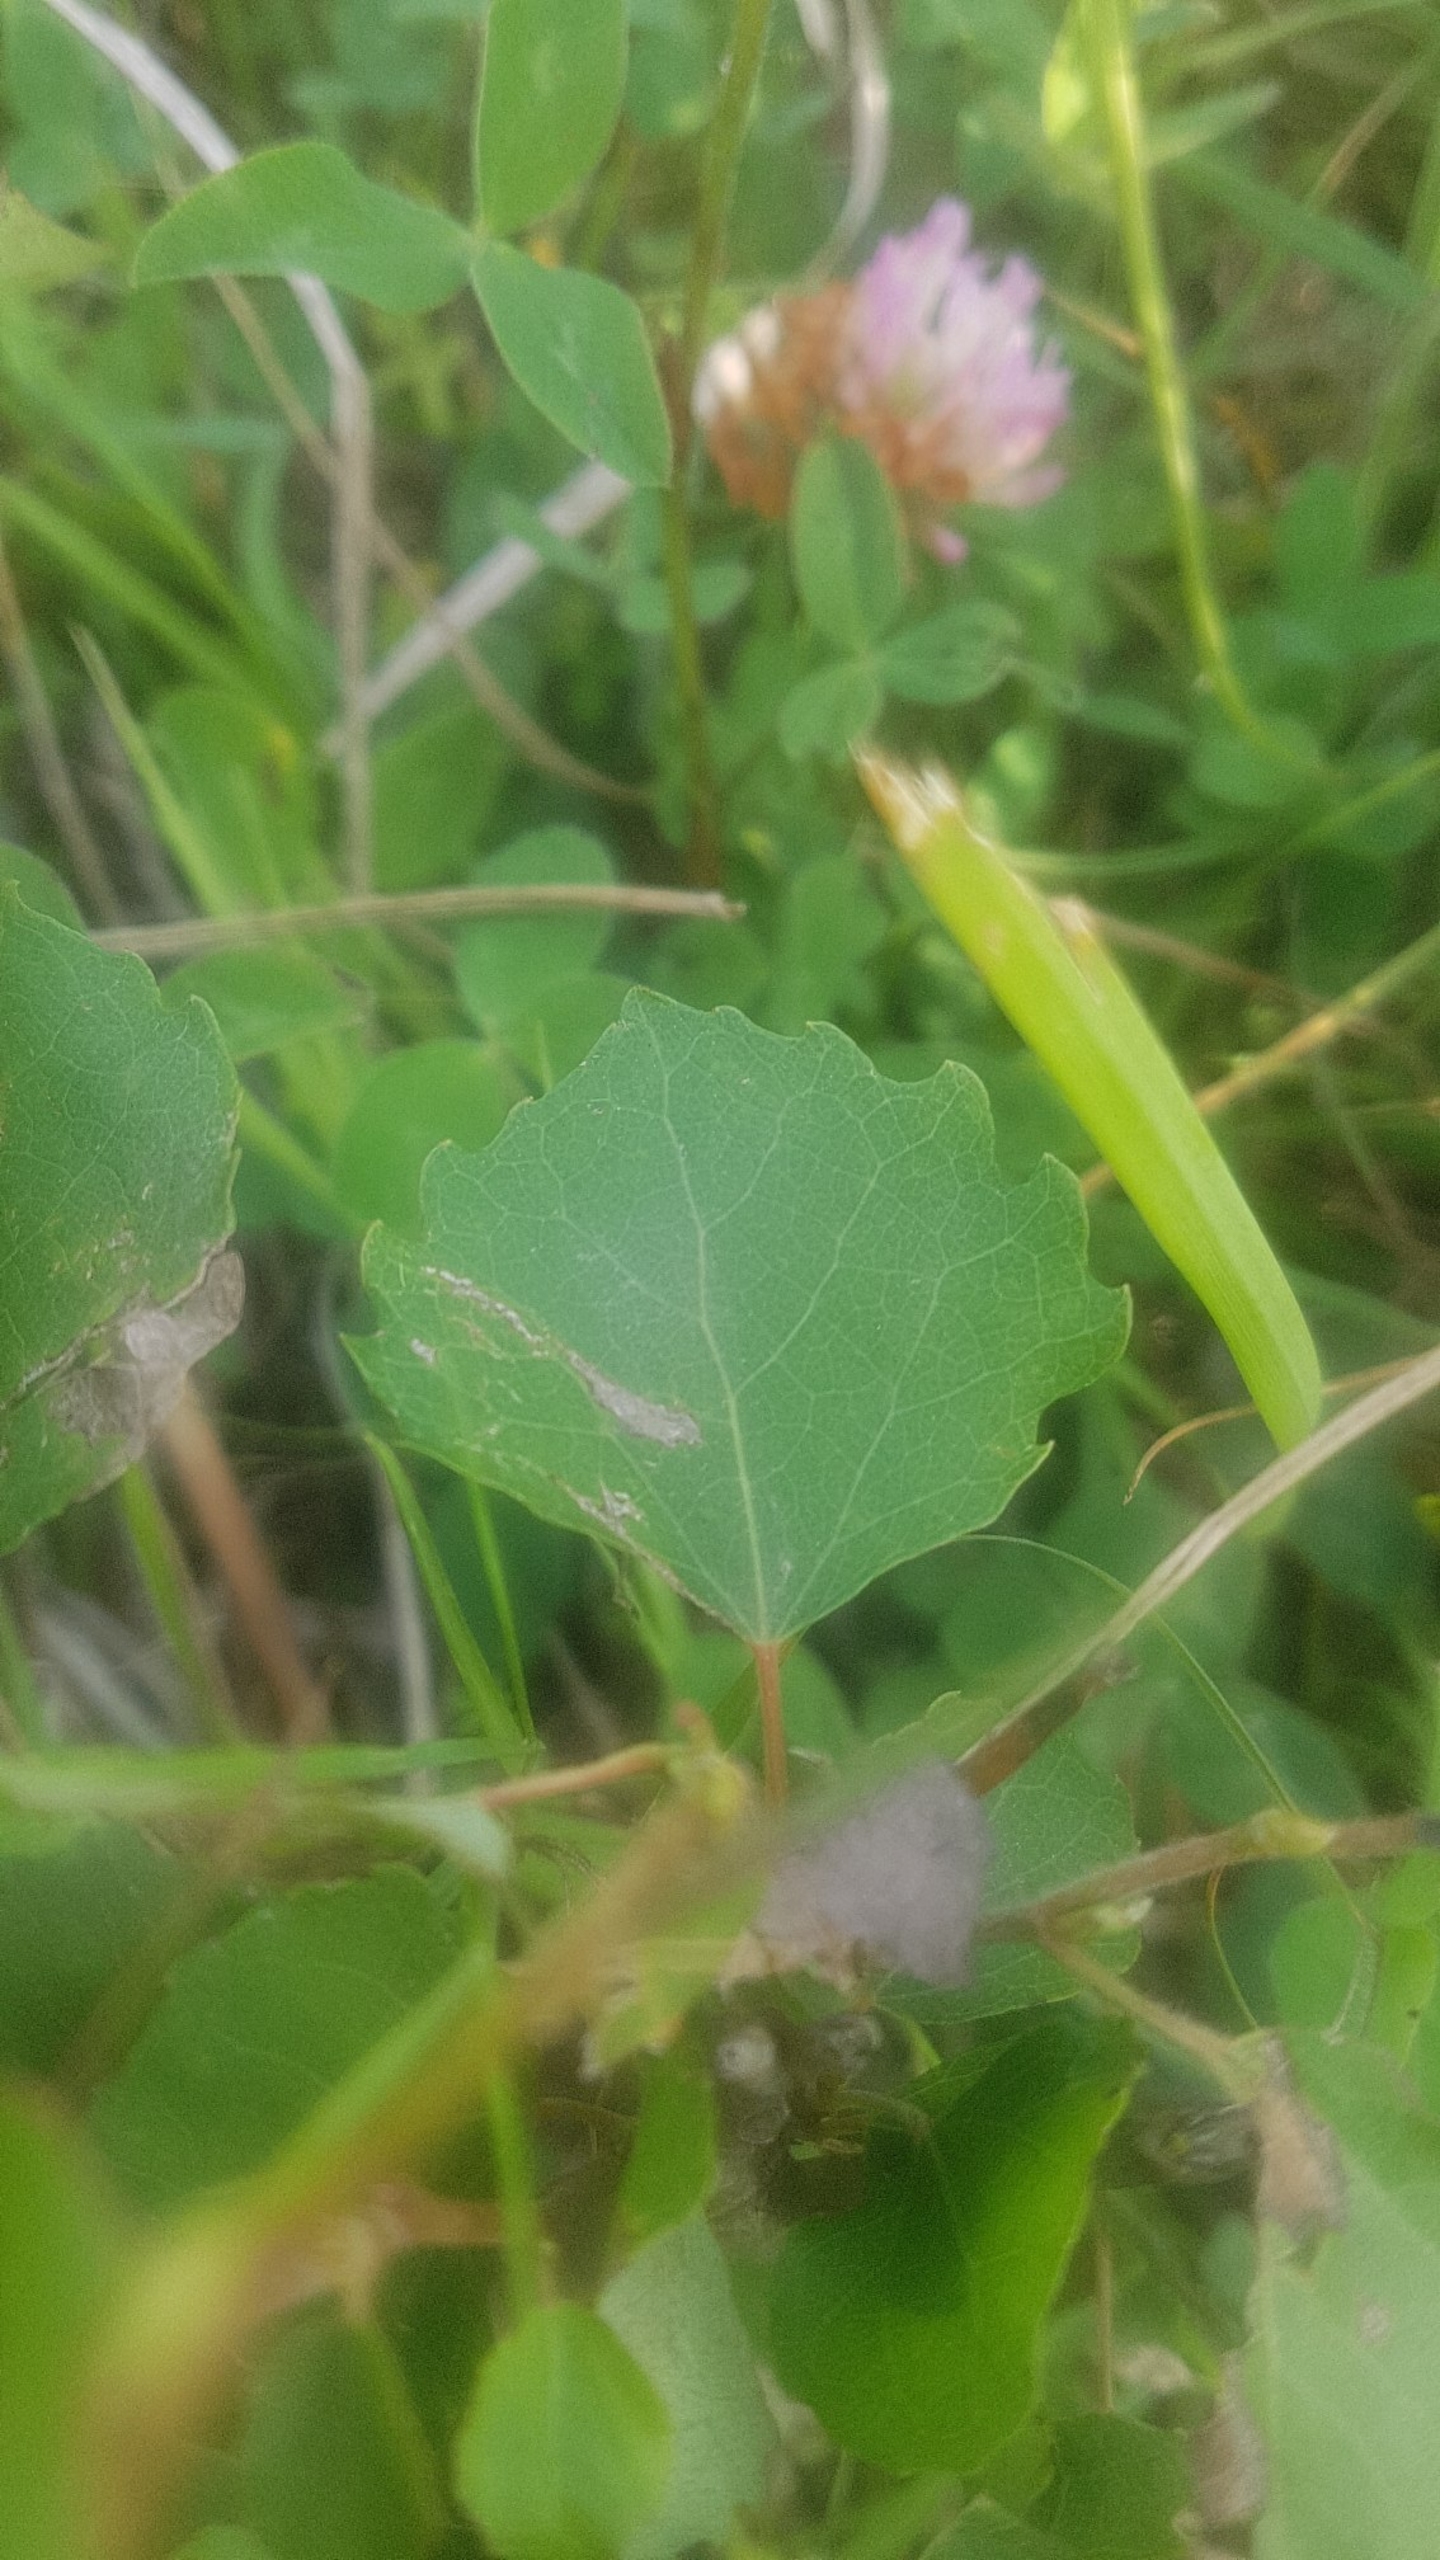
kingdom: Plantae
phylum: Tracheophyta
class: Magnoliopsida
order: Malpighiales
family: Salicaceae
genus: Populus
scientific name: Populus tremula
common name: Bævreasp
